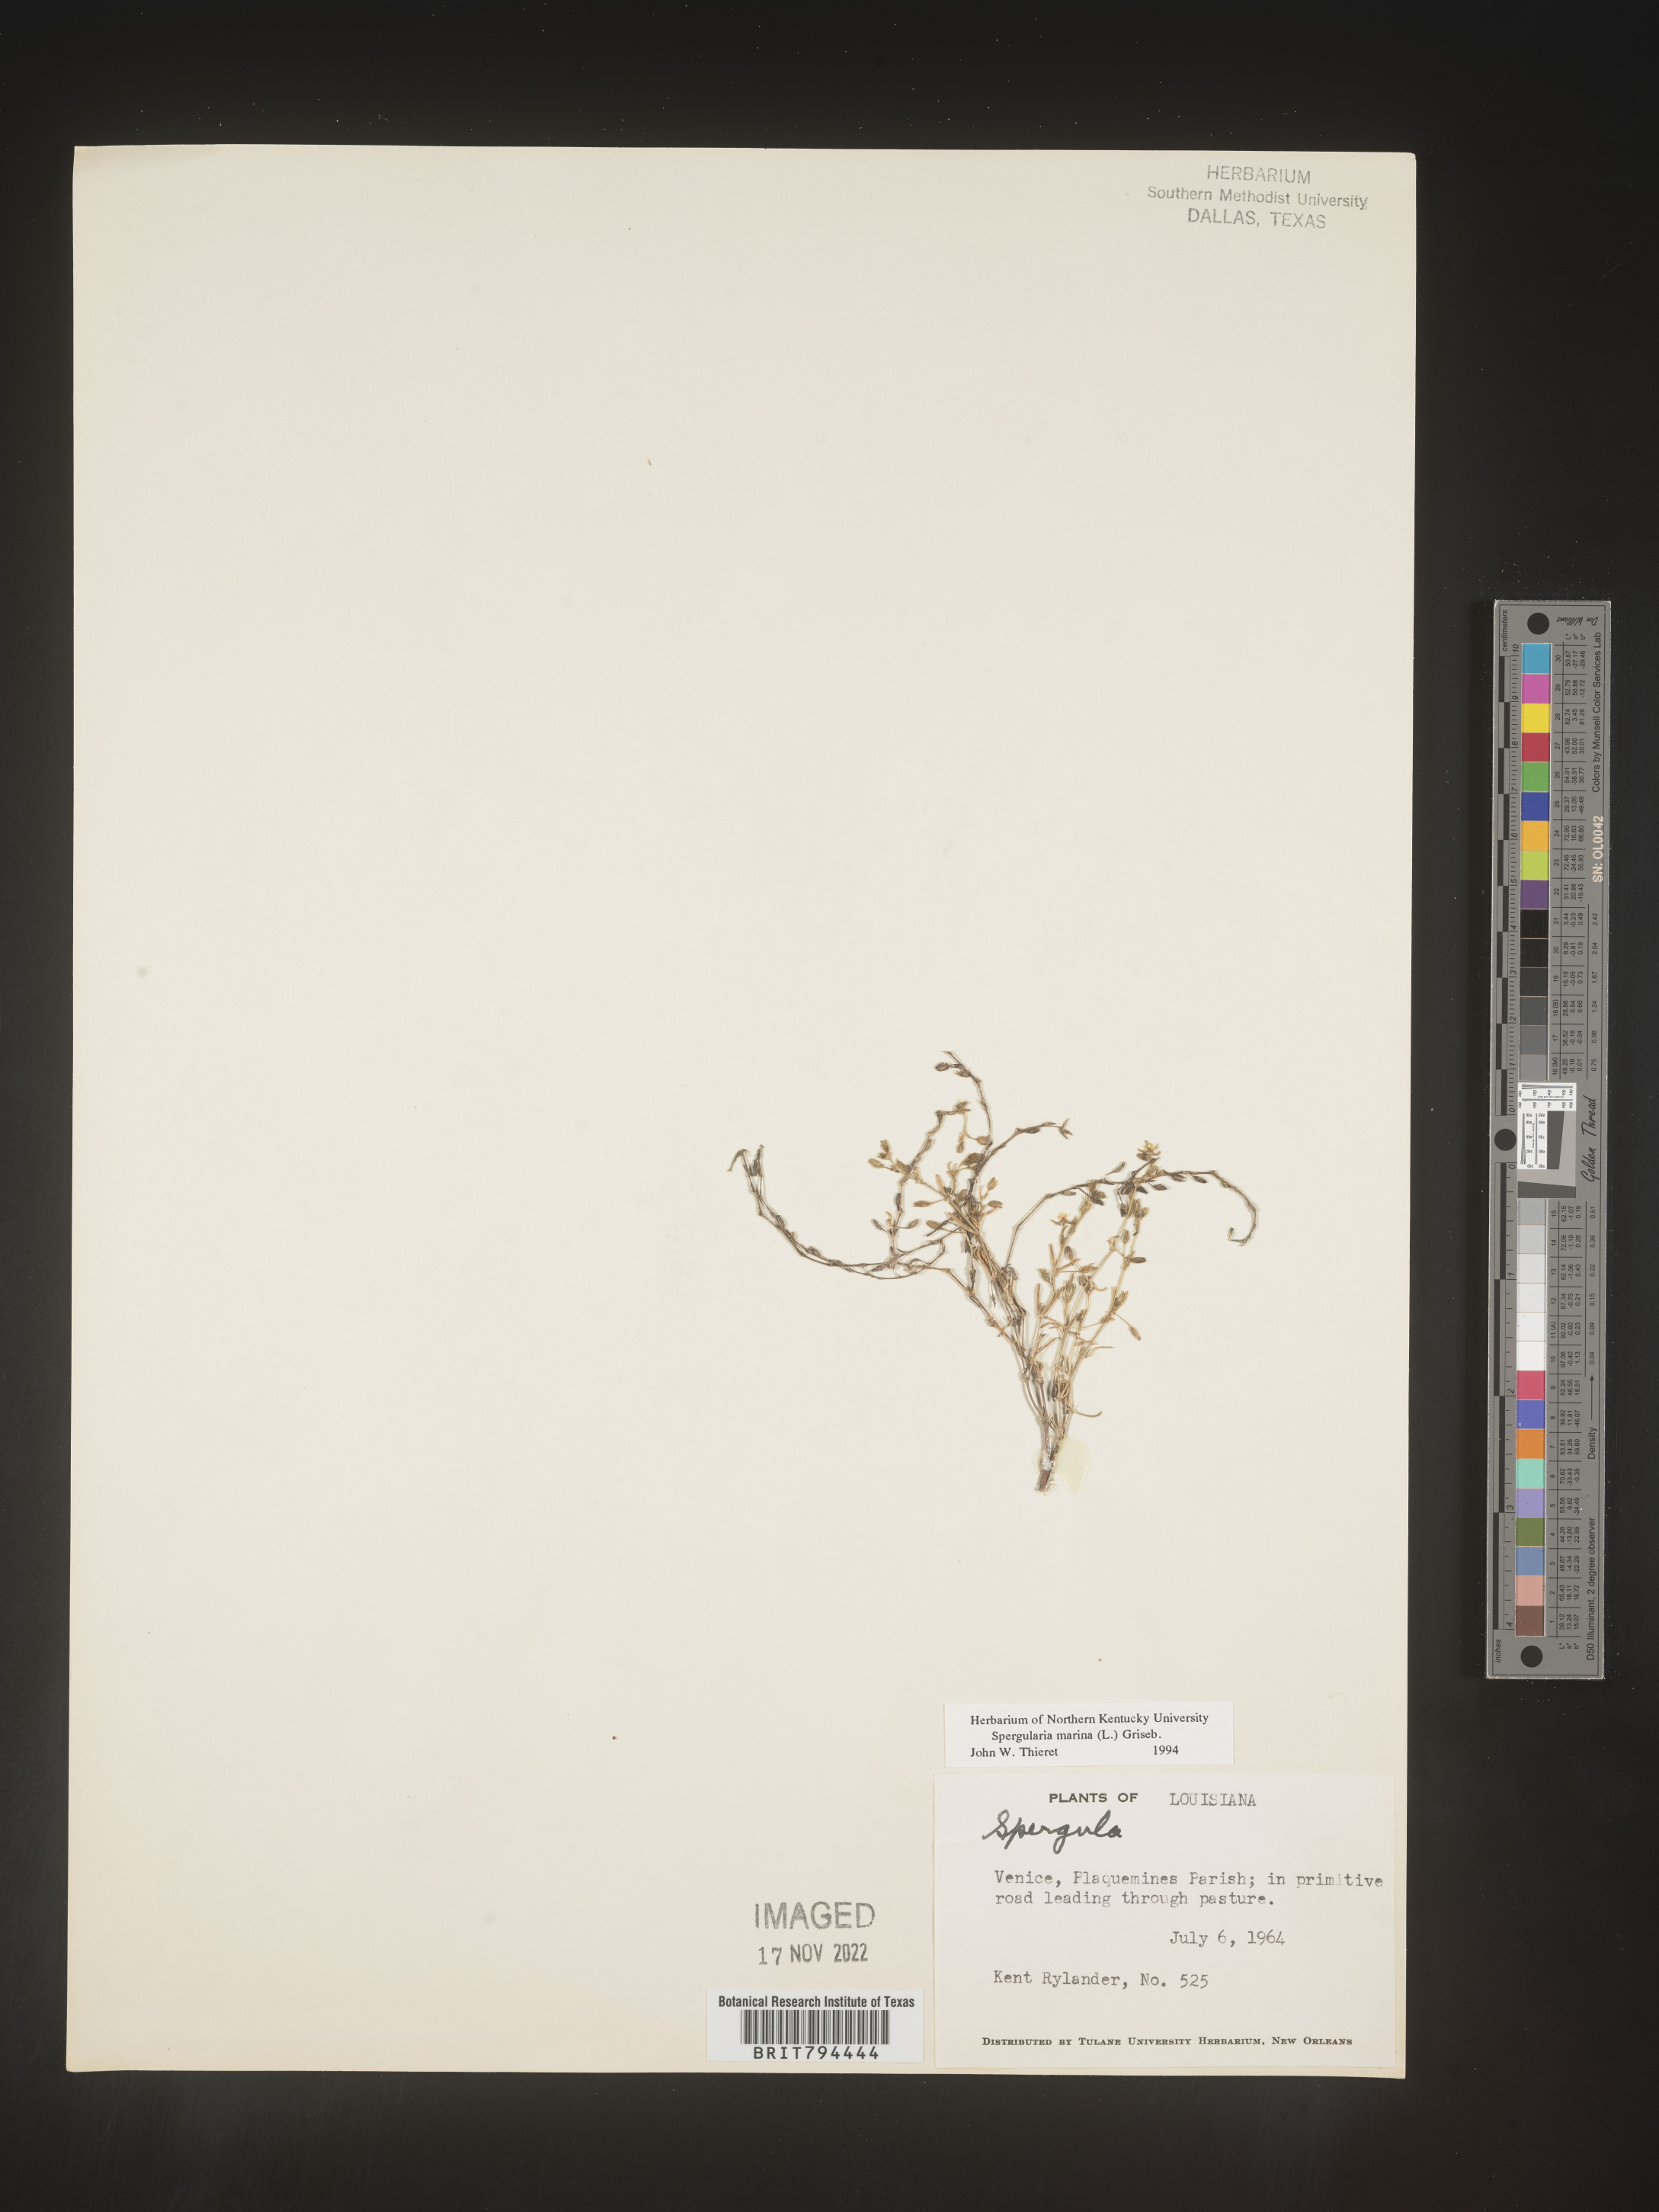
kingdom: Plantae
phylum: Tracheophyta
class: Magnoliopsida
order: Caryophyllales
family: Caryophyllaceae
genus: Spergularia
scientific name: Spergularia marina
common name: Lesser sea-spurrey
